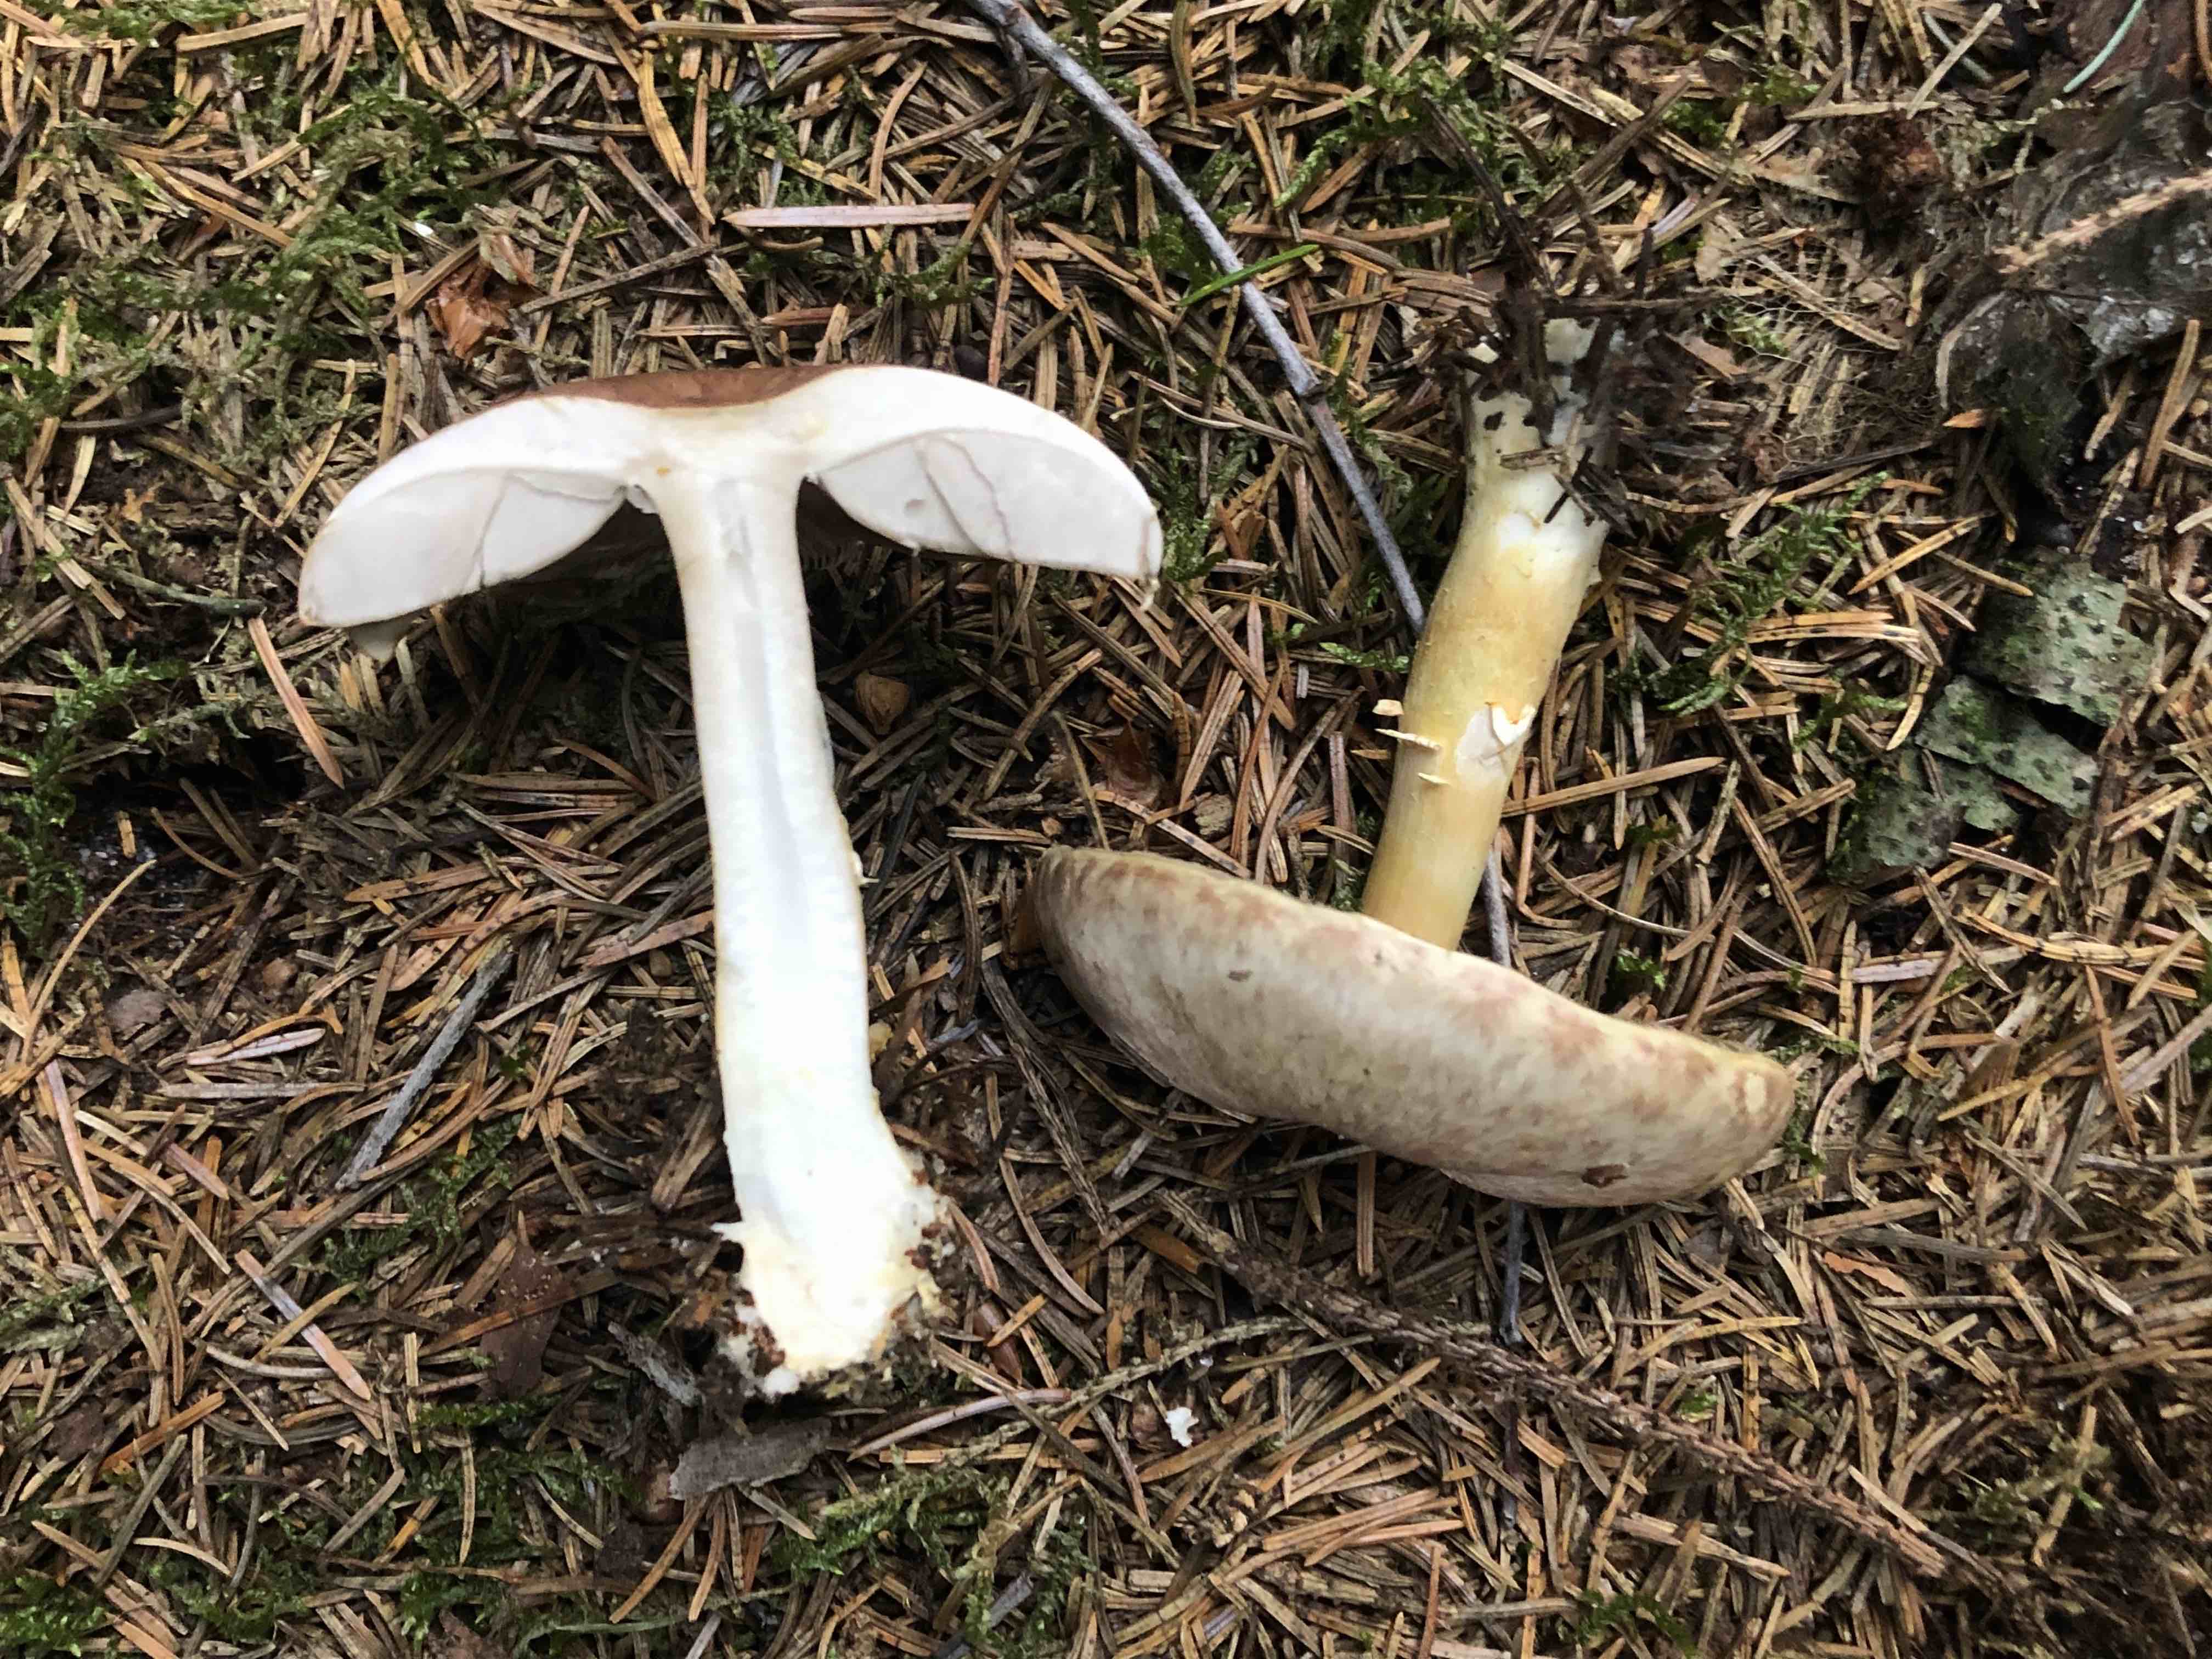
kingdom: Fungi
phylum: Basidiomycota
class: Agaricomycetes
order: Agaricales
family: Agaricaceae
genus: Agaricus
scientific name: Agaricus dulcidulus
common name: blegrød champignon
